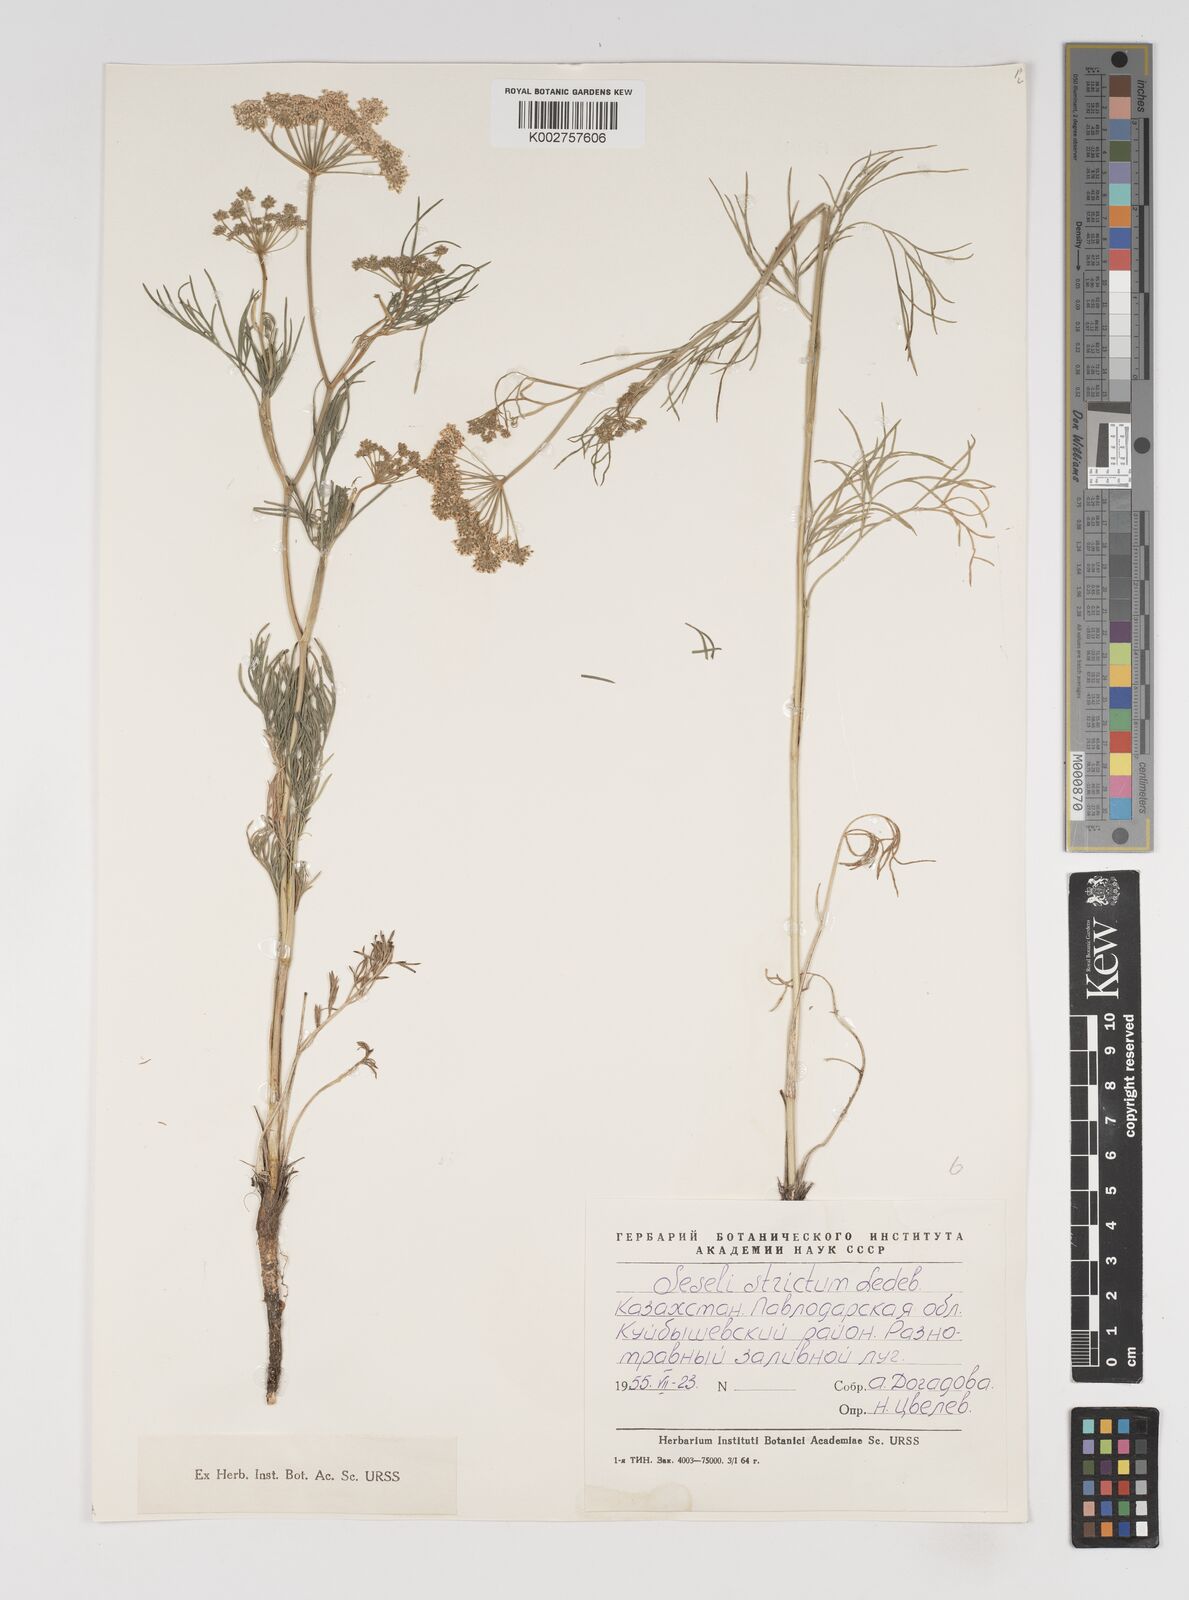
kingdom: Plantae
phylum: Tracheophyta
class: Magnoliopsida
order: Apiales
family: Apiaceae
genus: Seseli
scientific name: Seseli strictum
